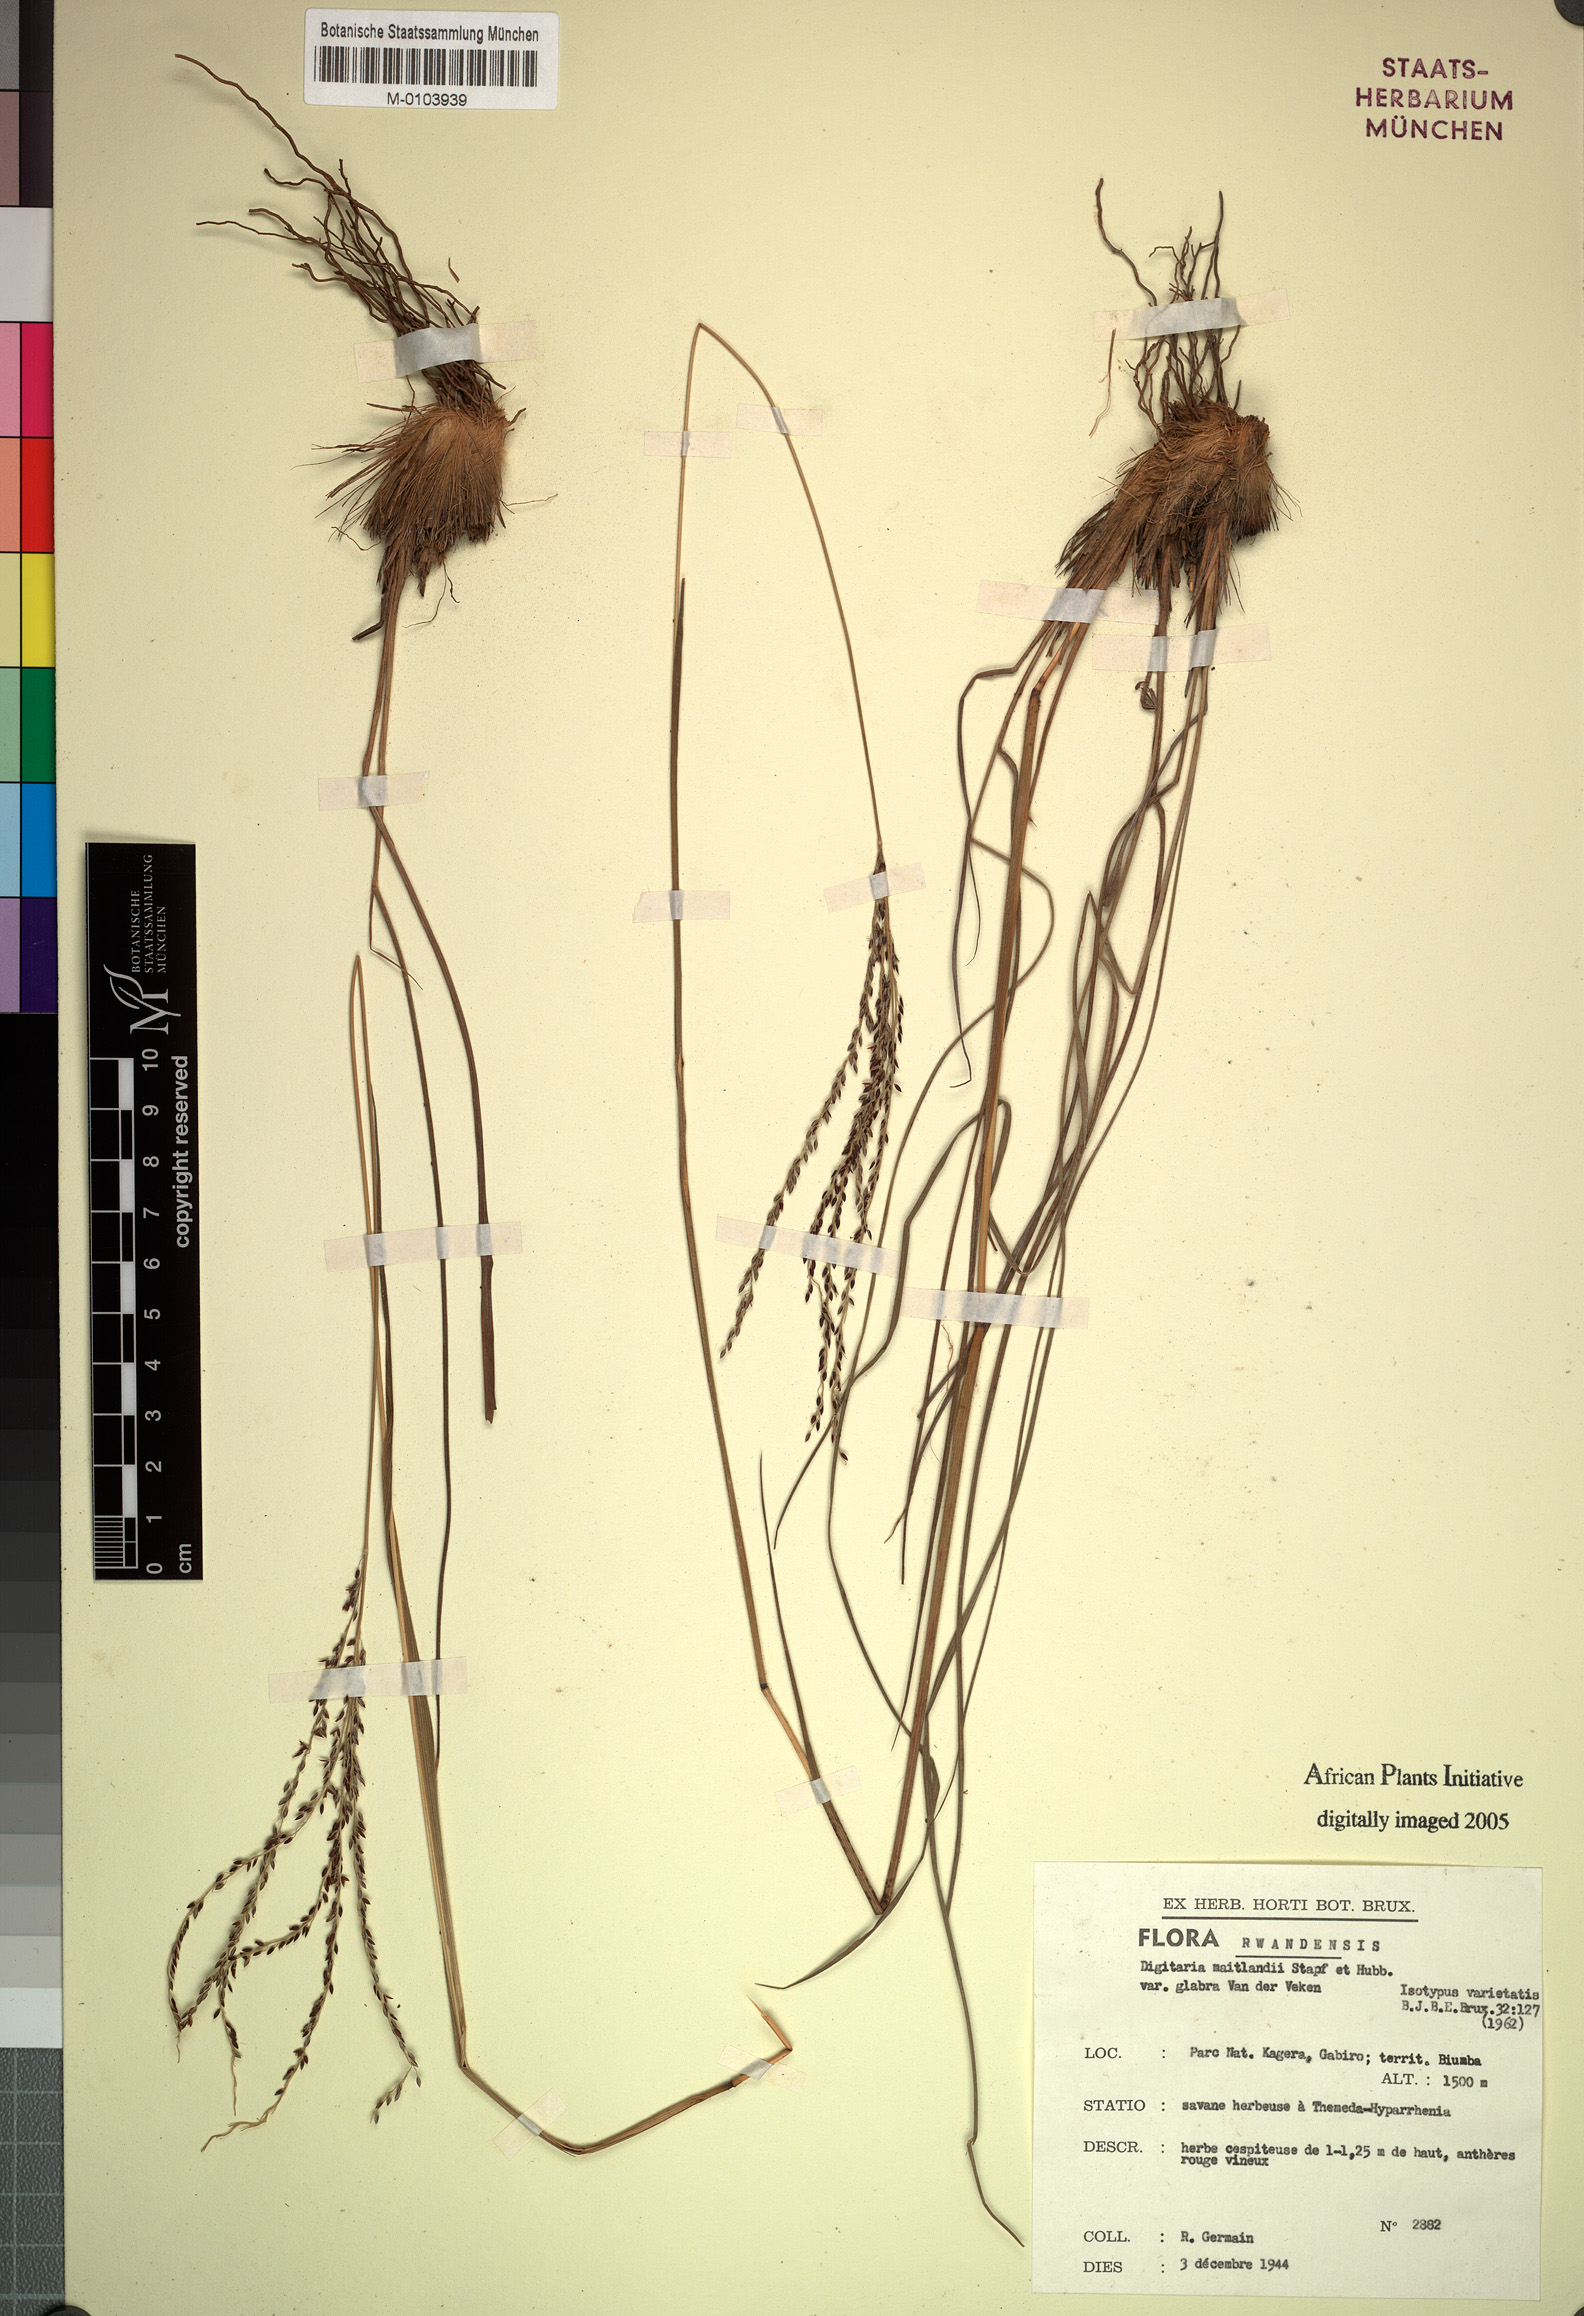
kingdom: Plantae
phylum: Tracheophyta
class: Liliopsida
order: Poales
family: Poaceae
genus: Digitaria
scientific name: Digitaria maitlandii
